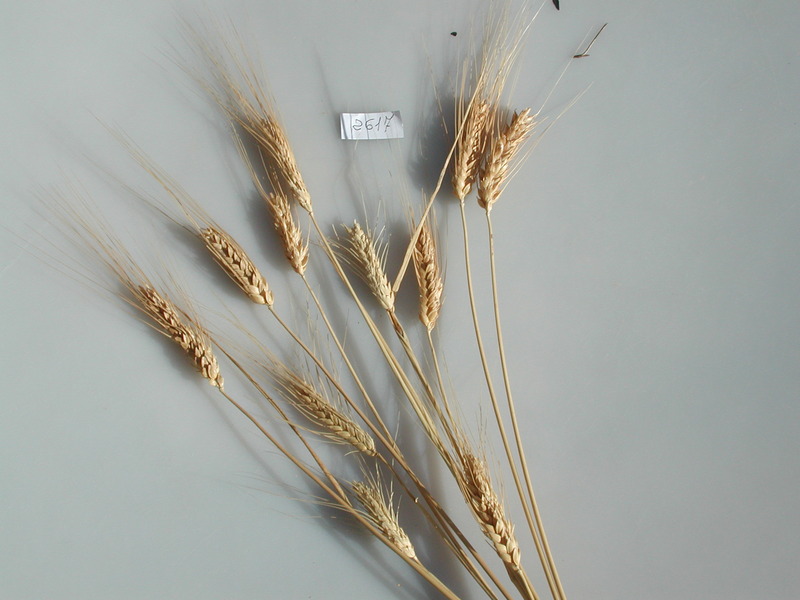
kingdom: Plantae
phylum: Tracheophyta
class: Liliopsida
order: Poales
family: Poaceae
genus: Triticum
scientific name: Triticum turgidum
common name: Wheat
